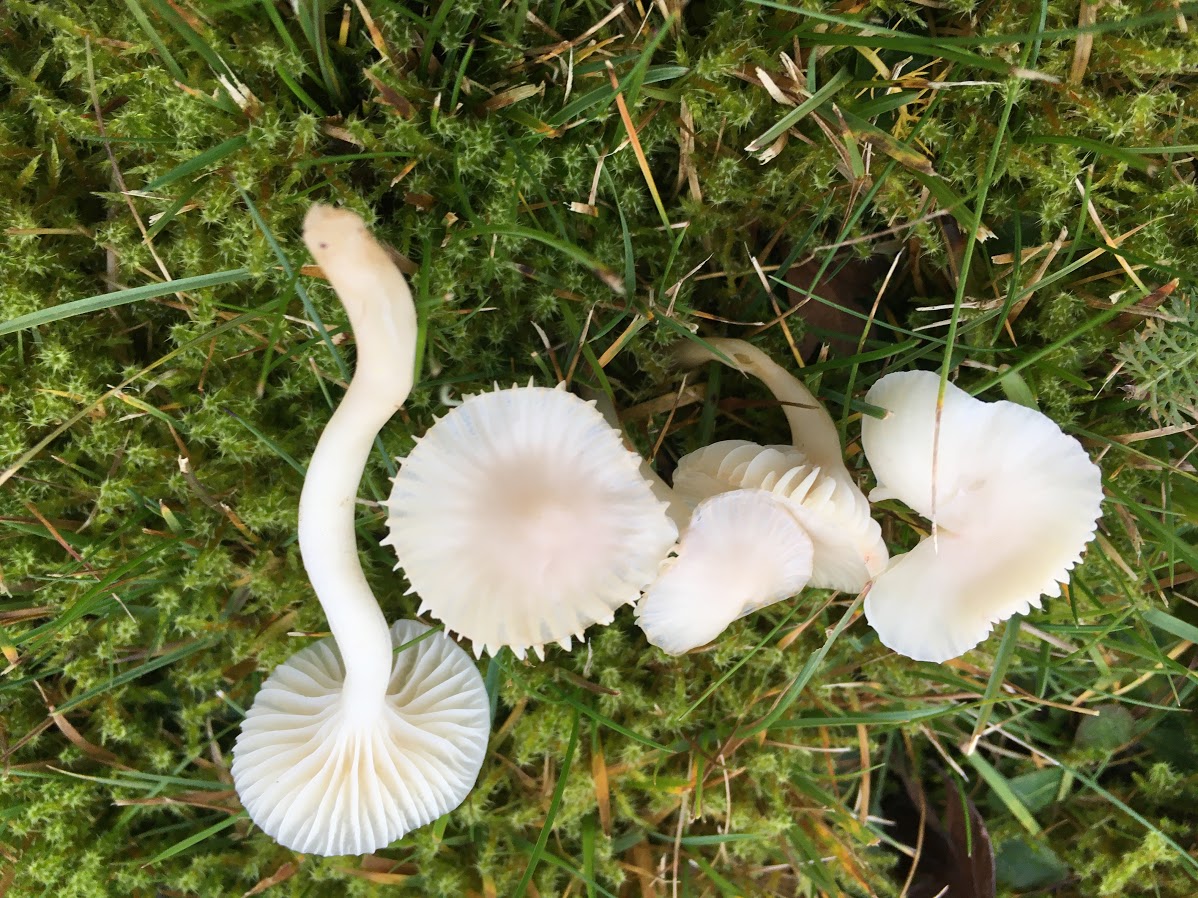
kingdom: Fungi
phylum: Basidiomycota
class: Agaricomycetes
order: Agaricales
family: Hygrophoraceae
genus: Cuphophyllus
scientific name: Cuphophyllus virgineus
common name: snehvid vokshat
